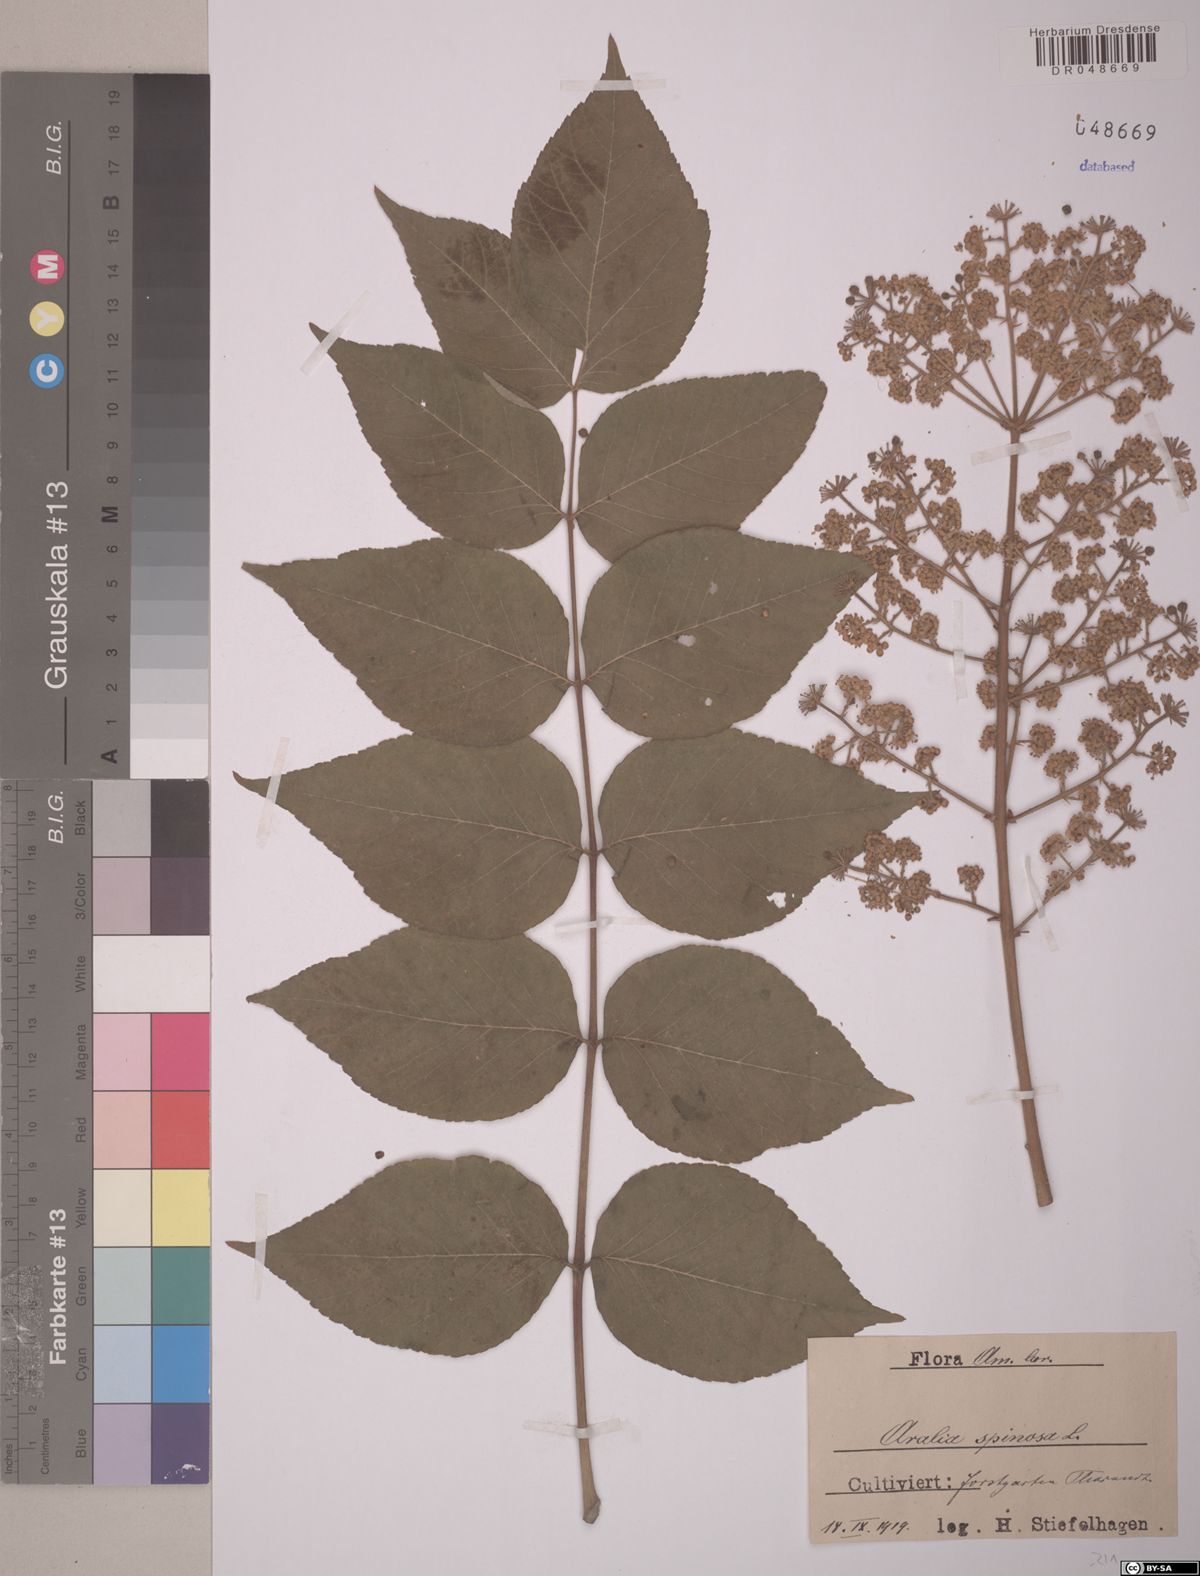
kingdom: Plantae
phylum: Tracheophyta
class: Magnoliopsida
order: Apiales
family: Araliaceae
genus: Aralia
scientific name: Aralia spinosa
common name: Hercules'-club
